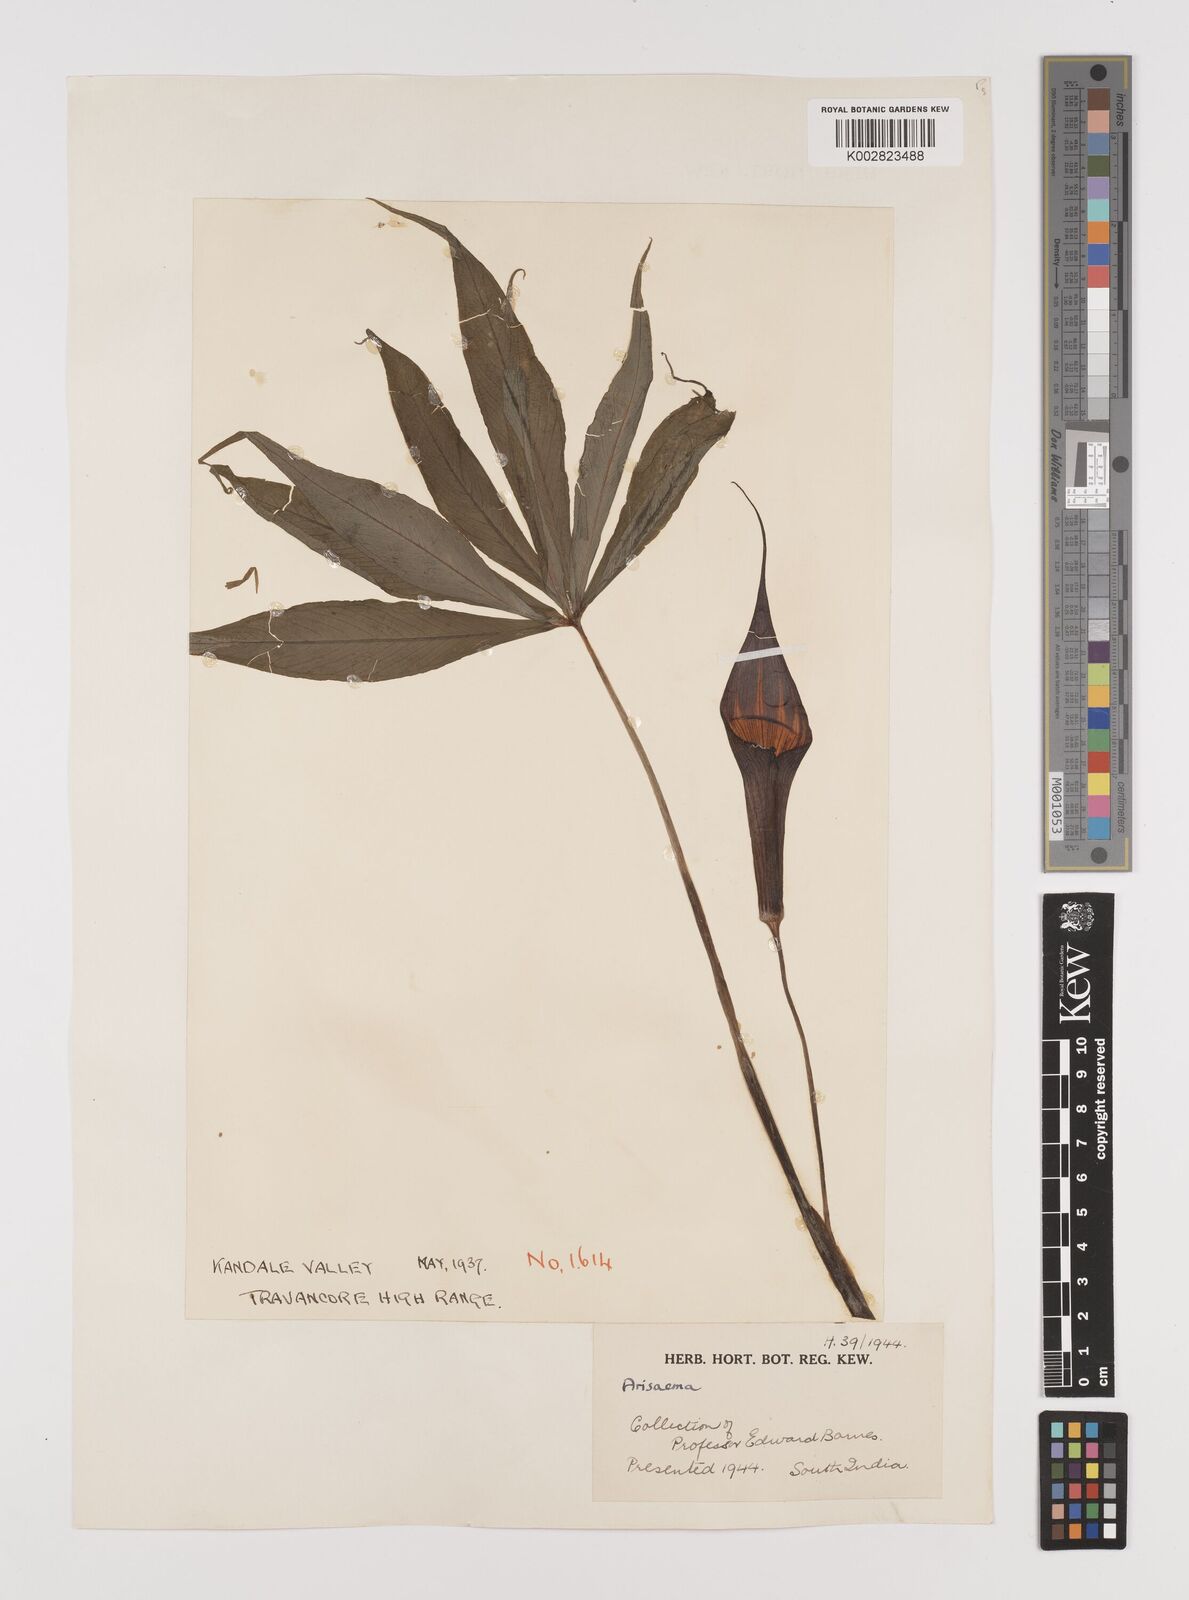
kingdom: Plantae
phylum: Tracheophyta
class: Liliopsida
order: Alismatales
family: Araceae
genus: Arisaema
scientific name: Arisaema
